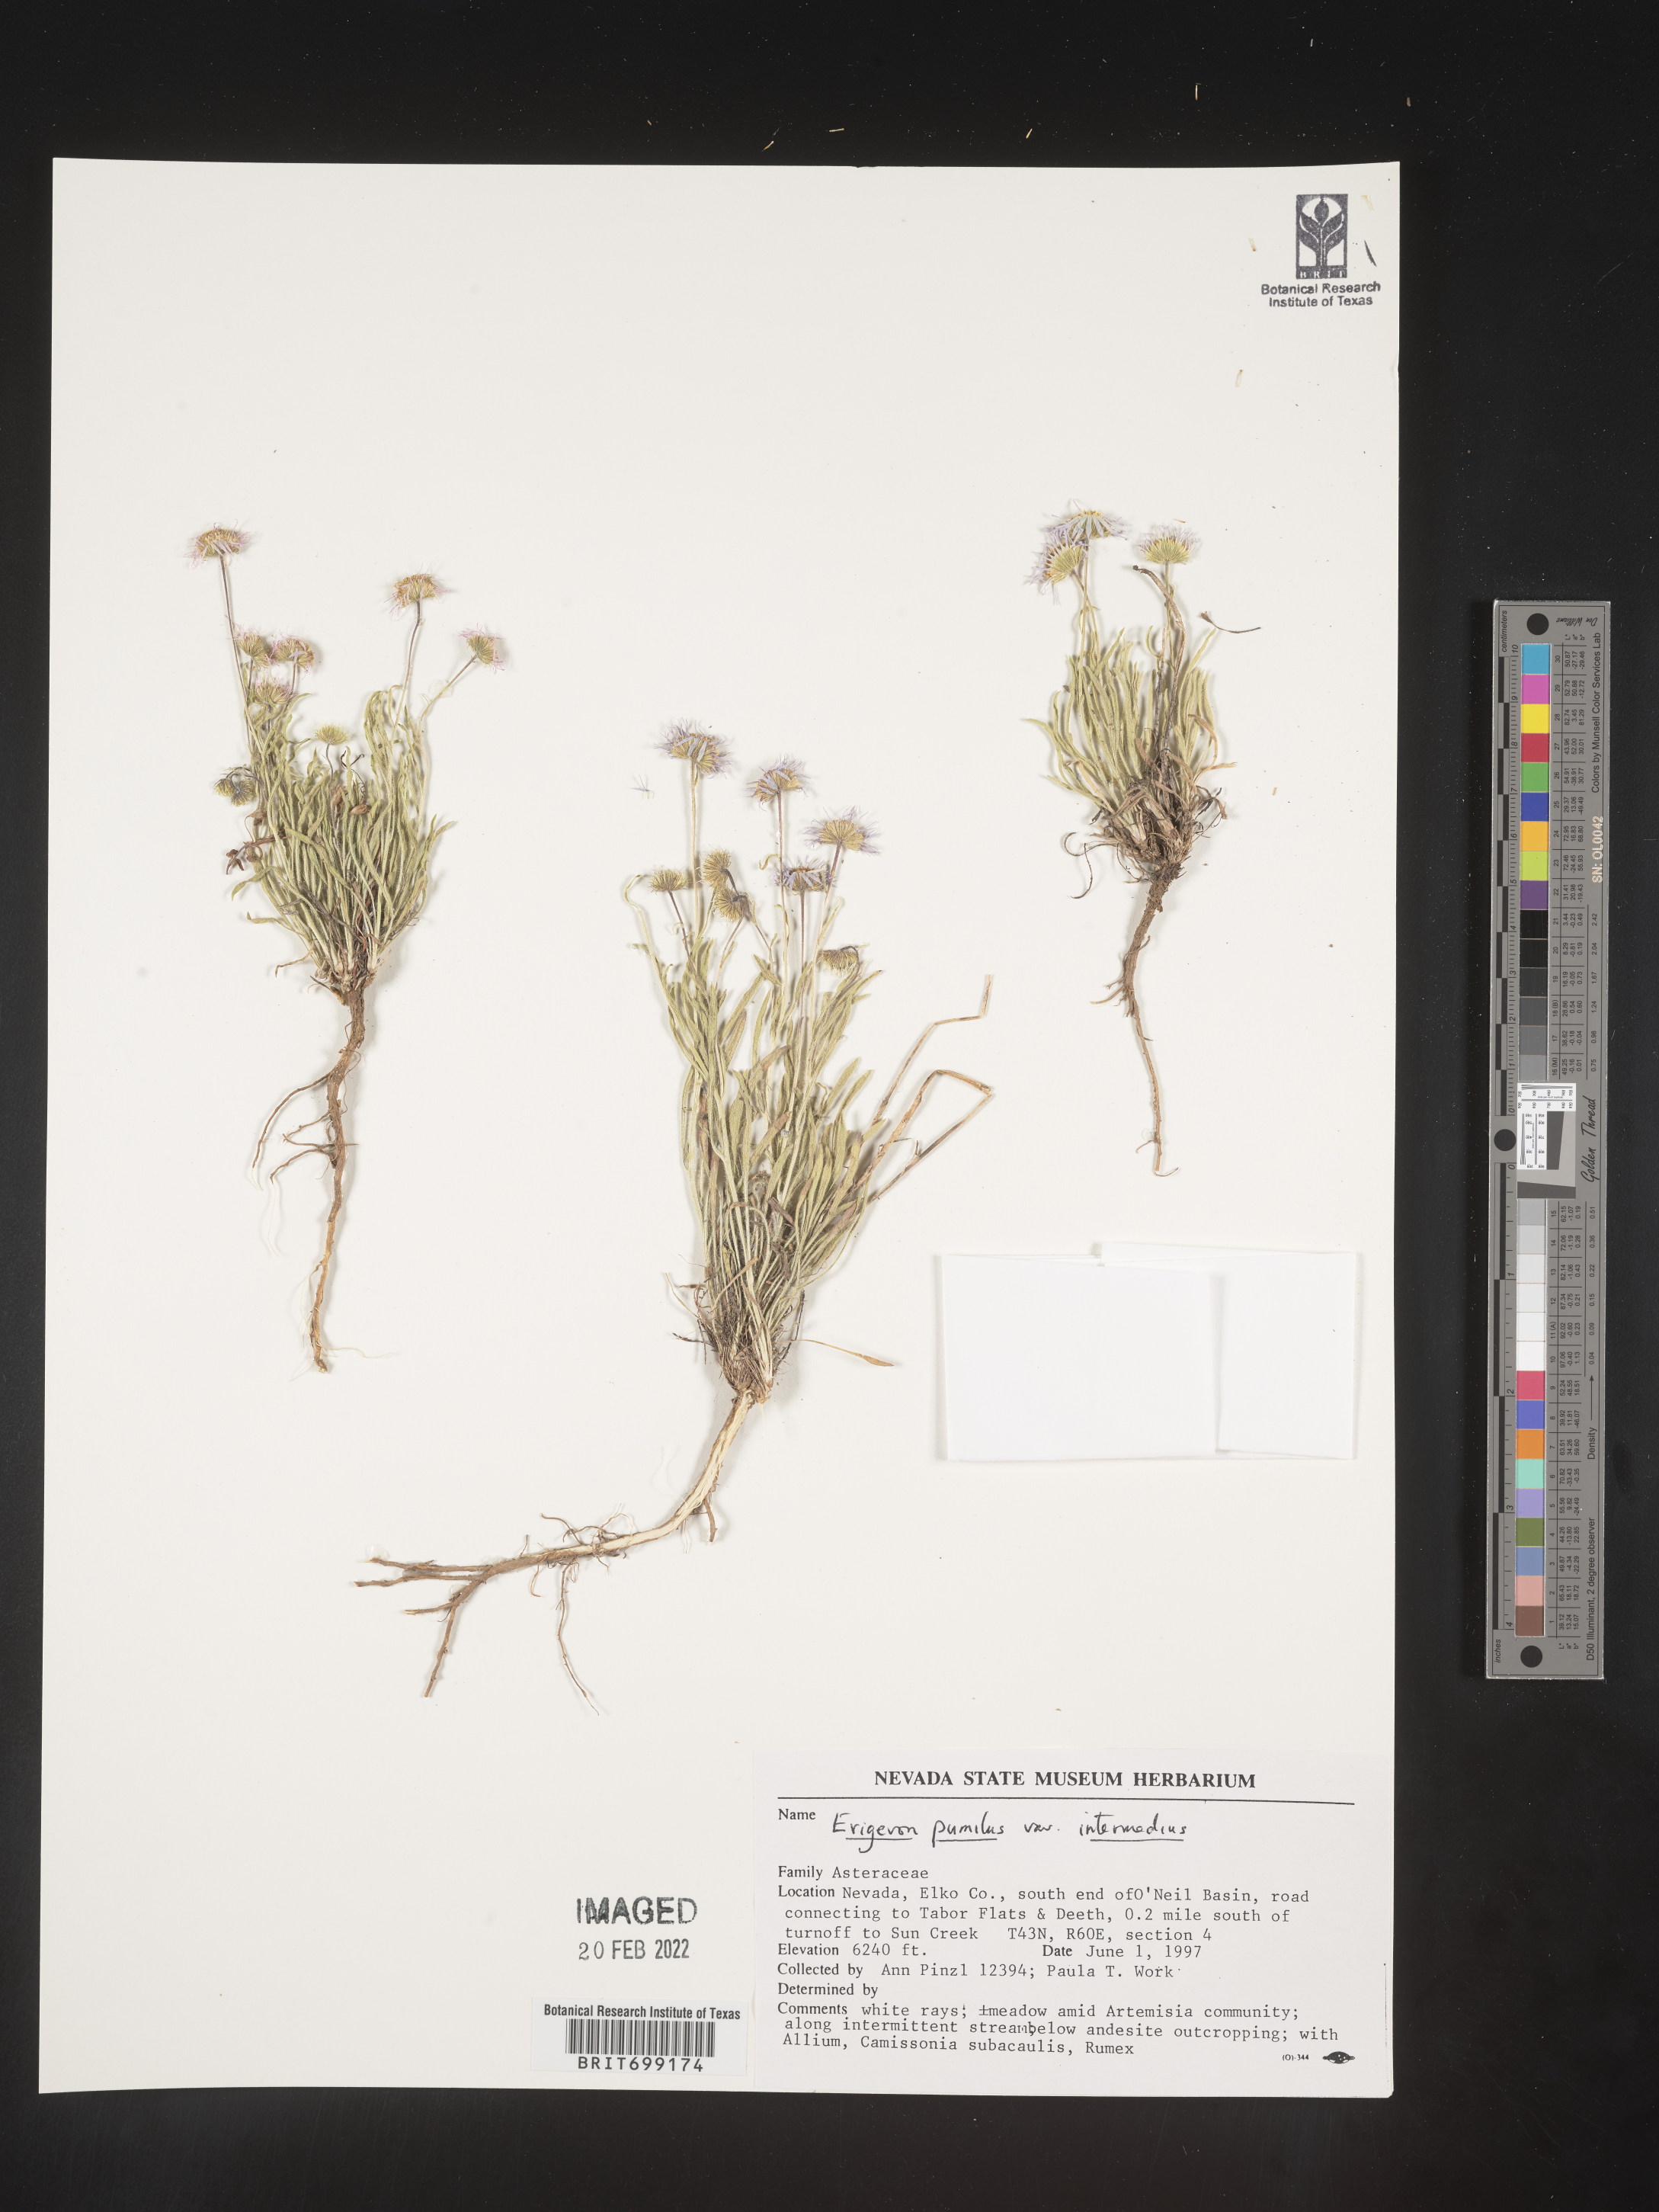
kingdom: Plantae
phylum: Tracheophyta
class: Magnoliopsida
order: Asterales
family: Asteraceae
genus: Erigeron
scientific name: Erigeron pumilus
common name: Shaggy fleabane
